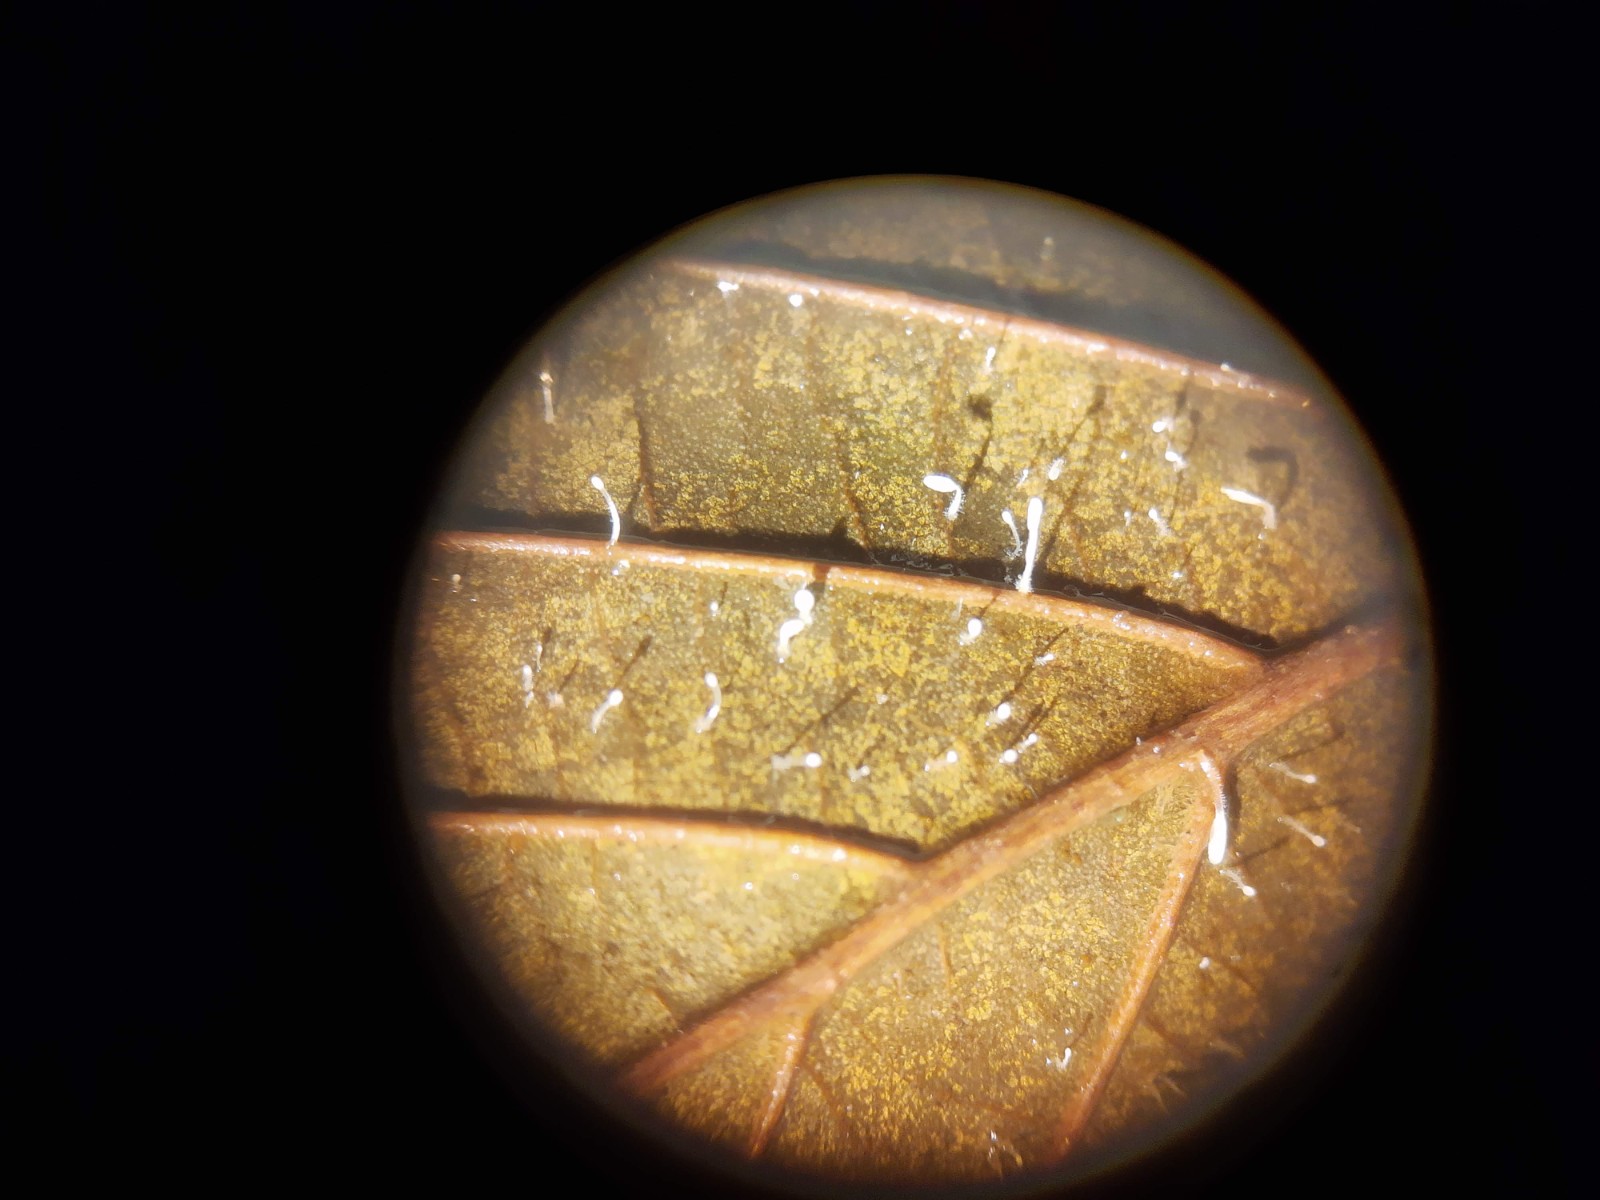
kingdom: Fungi
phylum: Basidiomycota
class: Agaricomycetes
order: Agaricales
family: Typhulaceae
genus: Typhula
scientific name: Typhula setipes
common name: liden trådkølle
